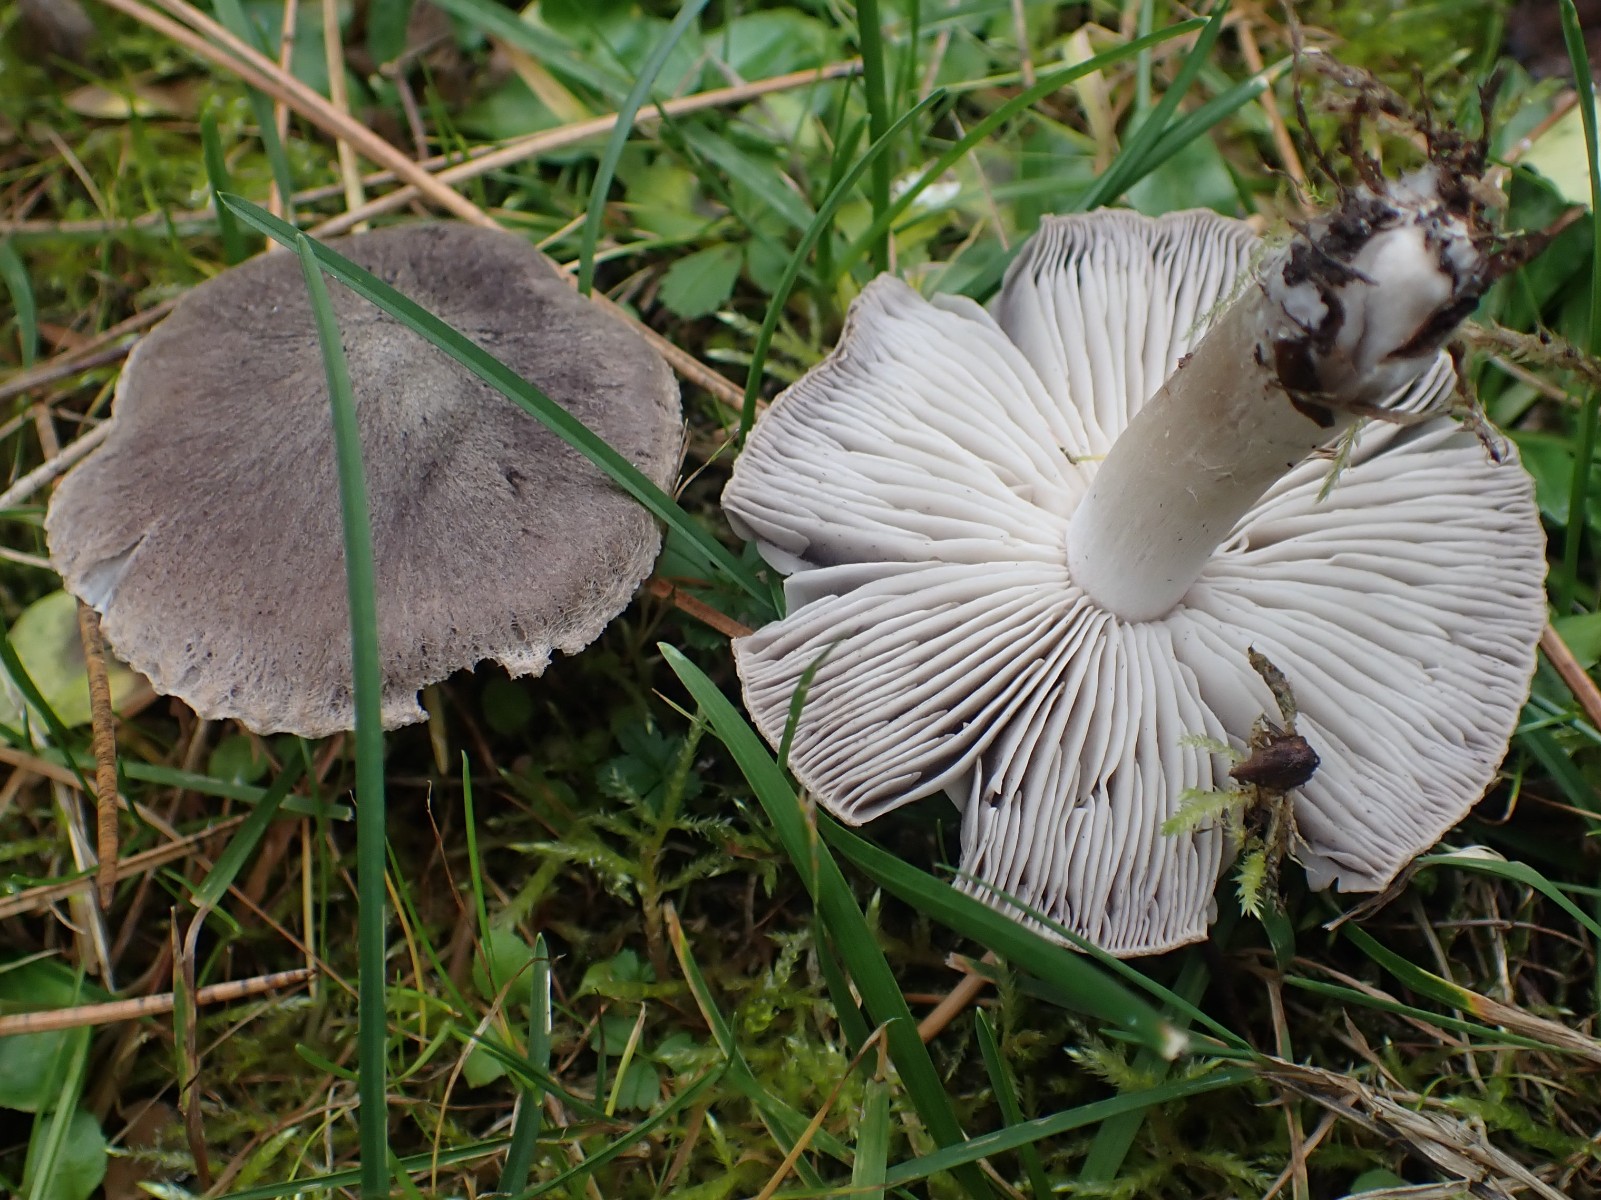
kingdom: Fungi
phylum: Basidiomycota
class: Agaricomycetes
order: Agaricales
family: Tricholomataceae
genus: Tricholoma
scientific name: Tricholoma terreum
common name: jordfarvet ridderhat
